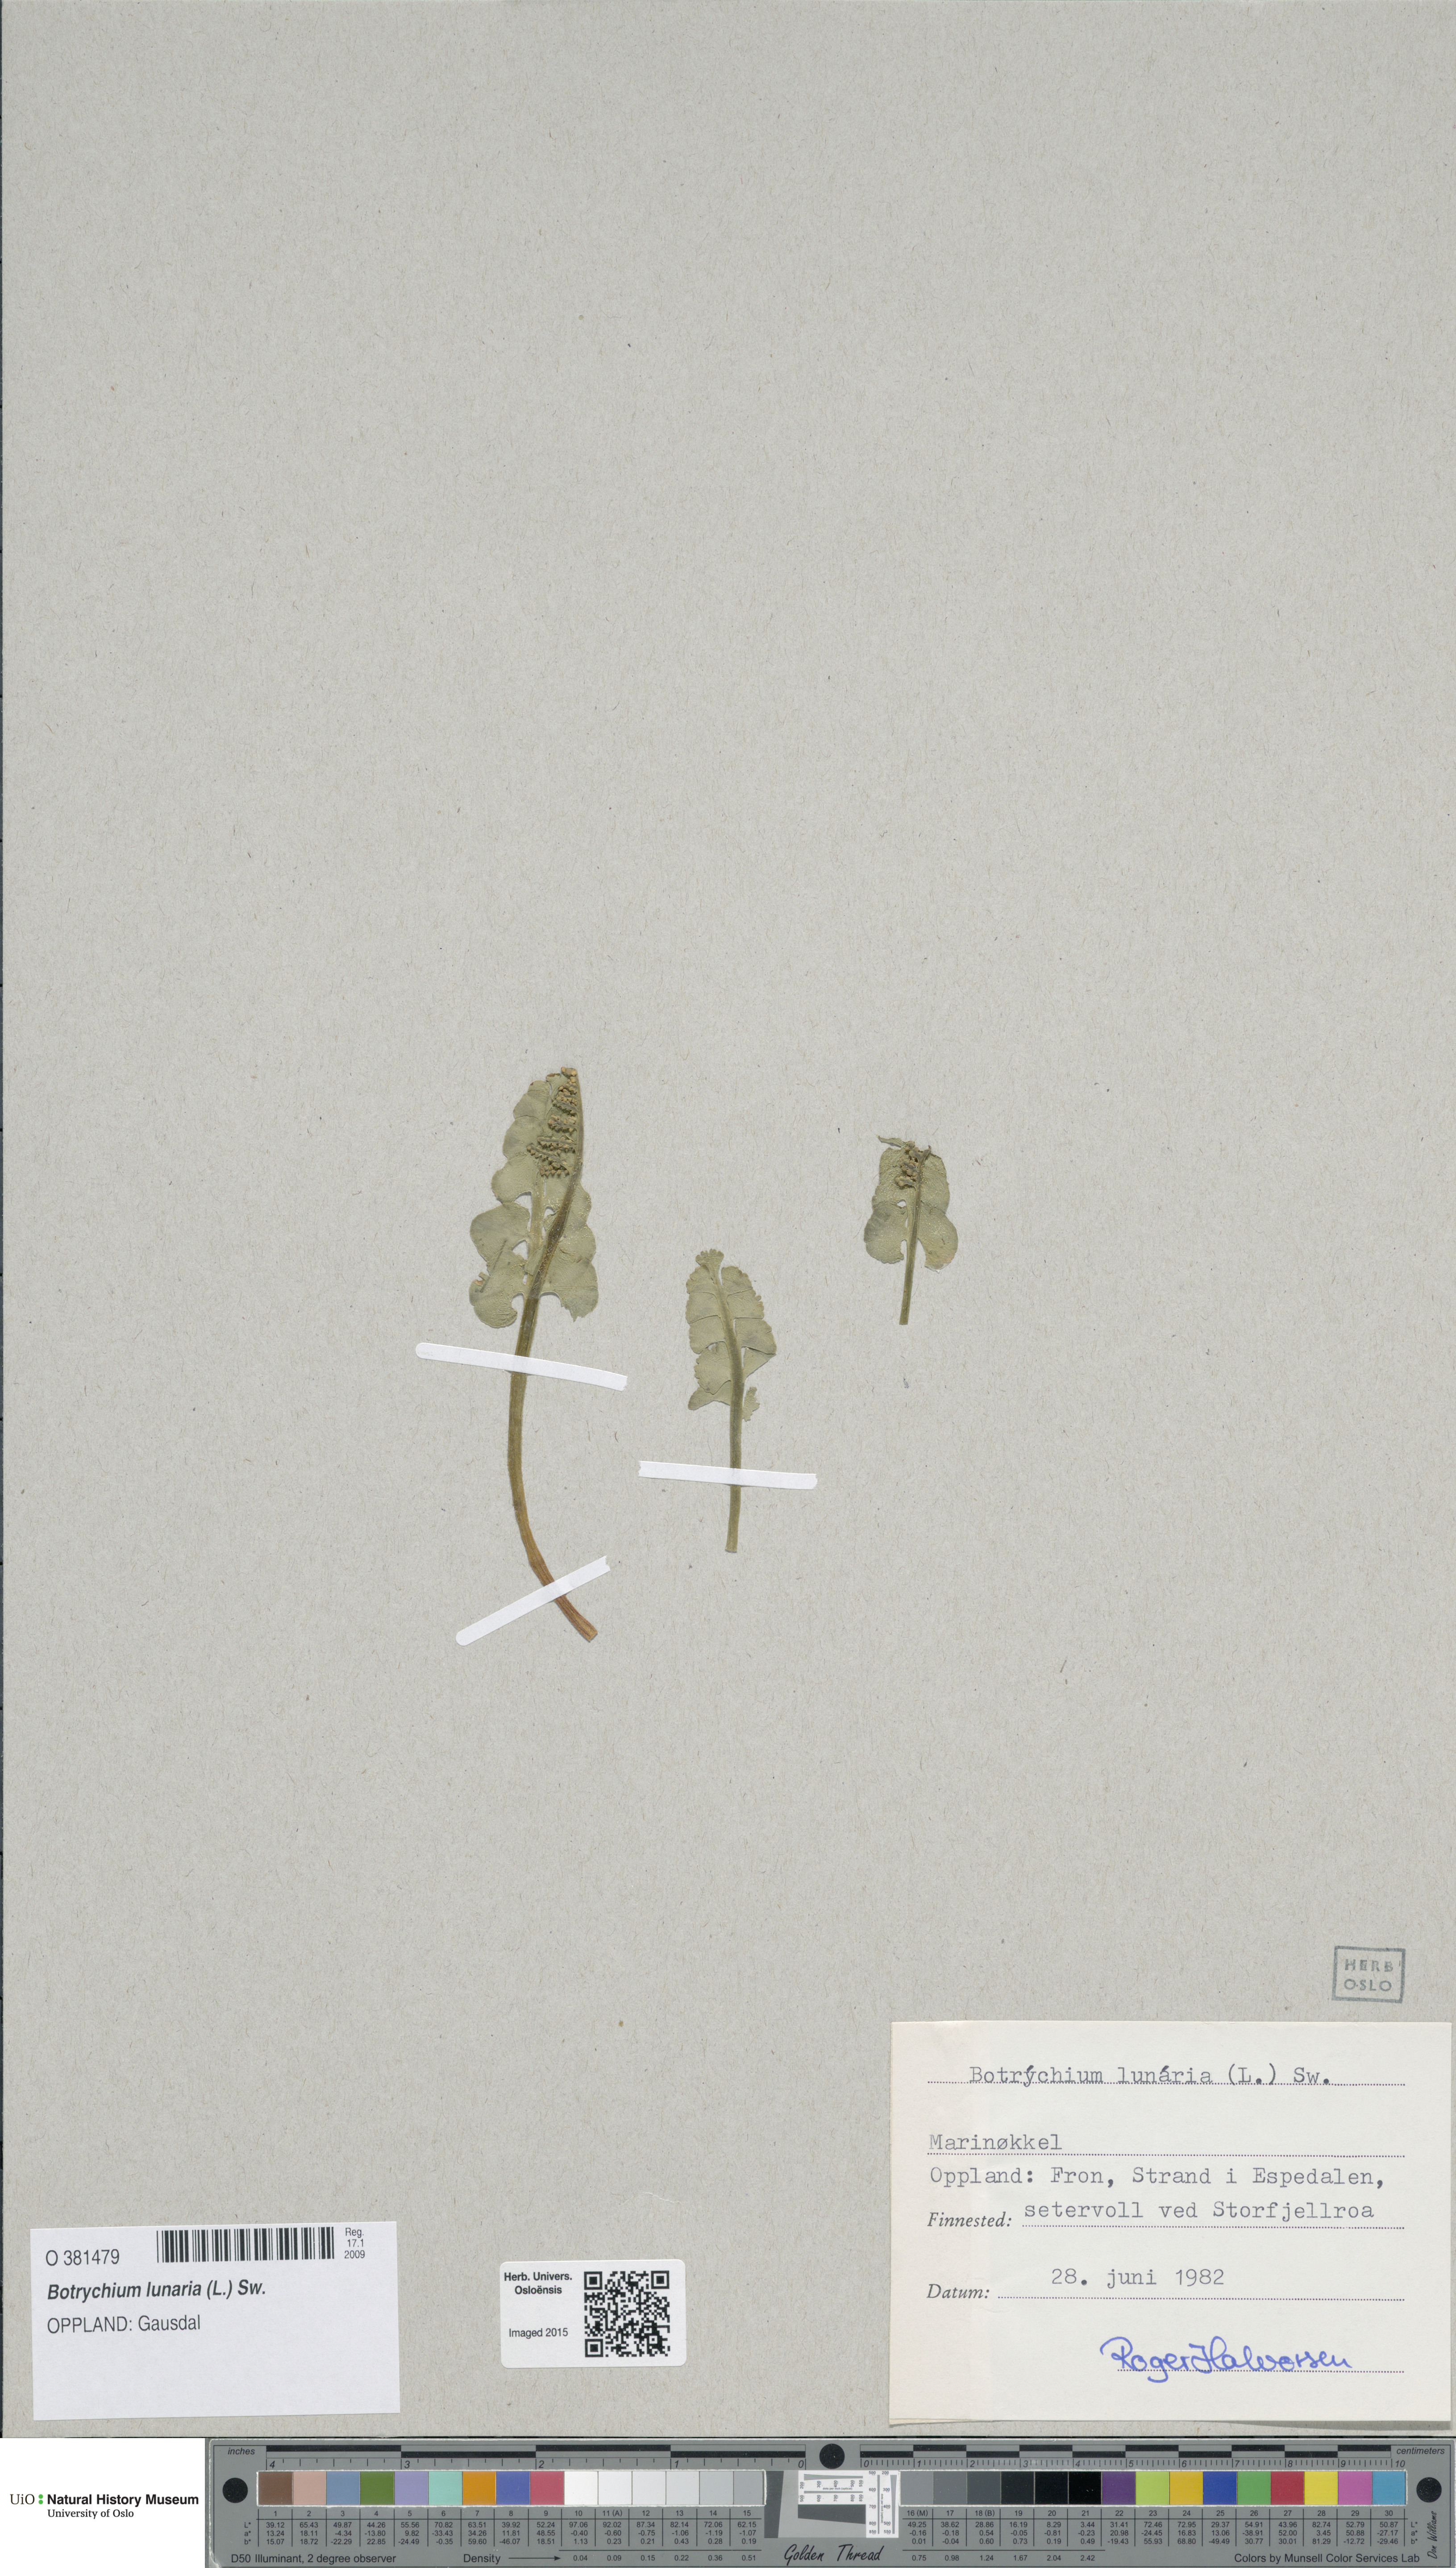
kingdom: Plantae
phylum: Tracheophyta
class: Polypodiopsida
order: Ophioglossales
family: Ophioglossaceae
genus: Botrychium
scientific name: Botrychium lunaria
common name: Moonwort
